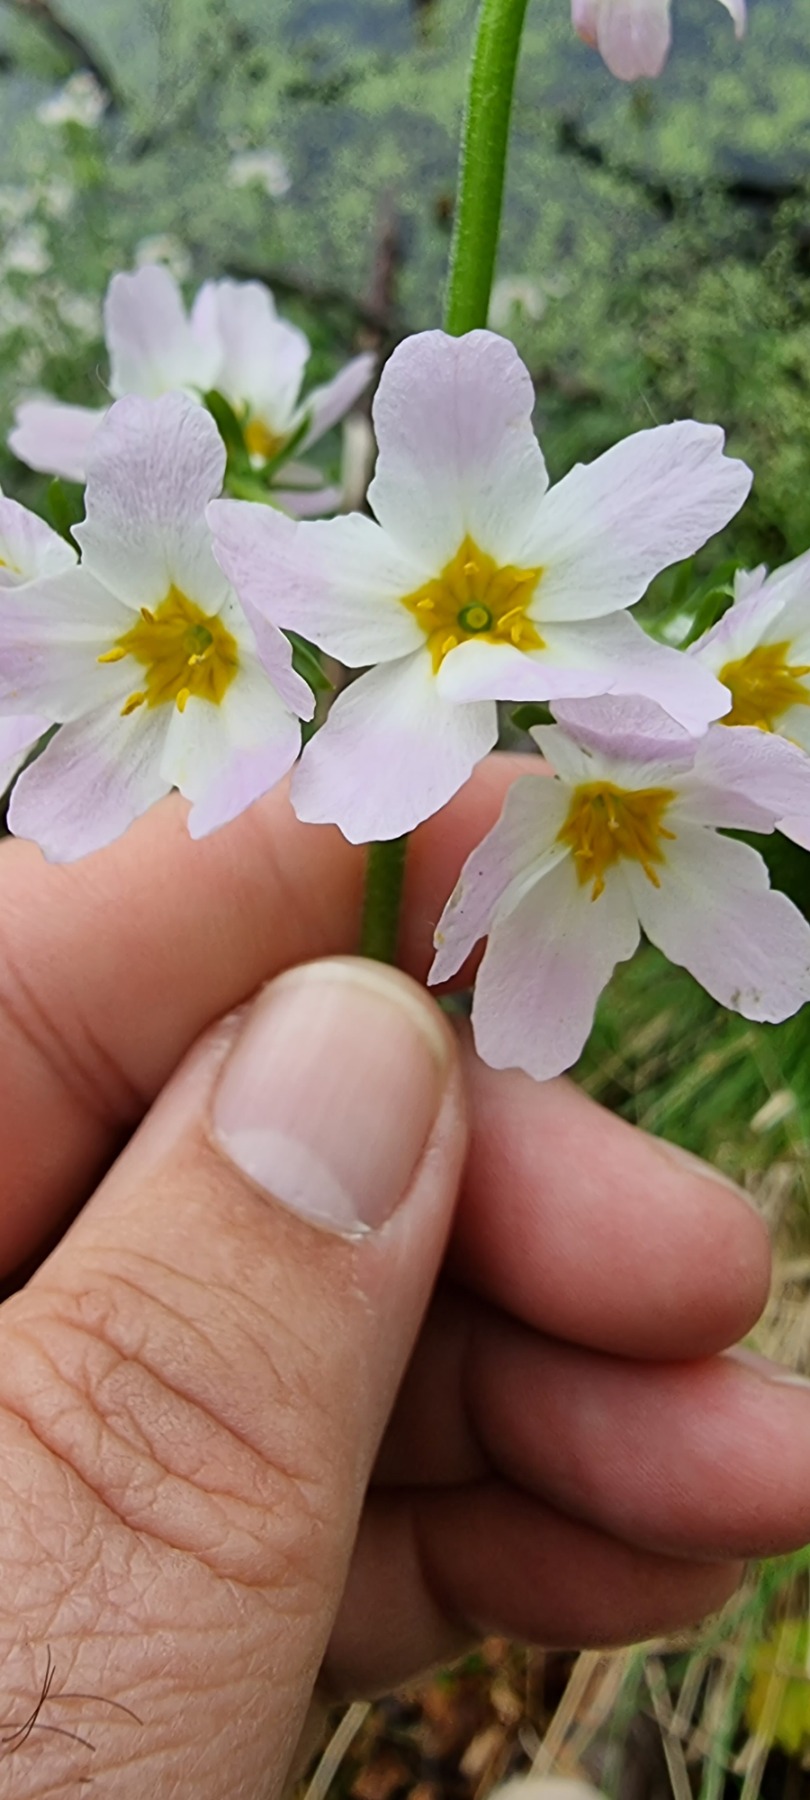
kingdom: Plantae
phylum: Tracheophyta
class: Magnoliopsida
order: Ericales
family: Primulaceae
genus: Hottonia
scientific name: Hottonia palustris
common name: Vandrøllike
